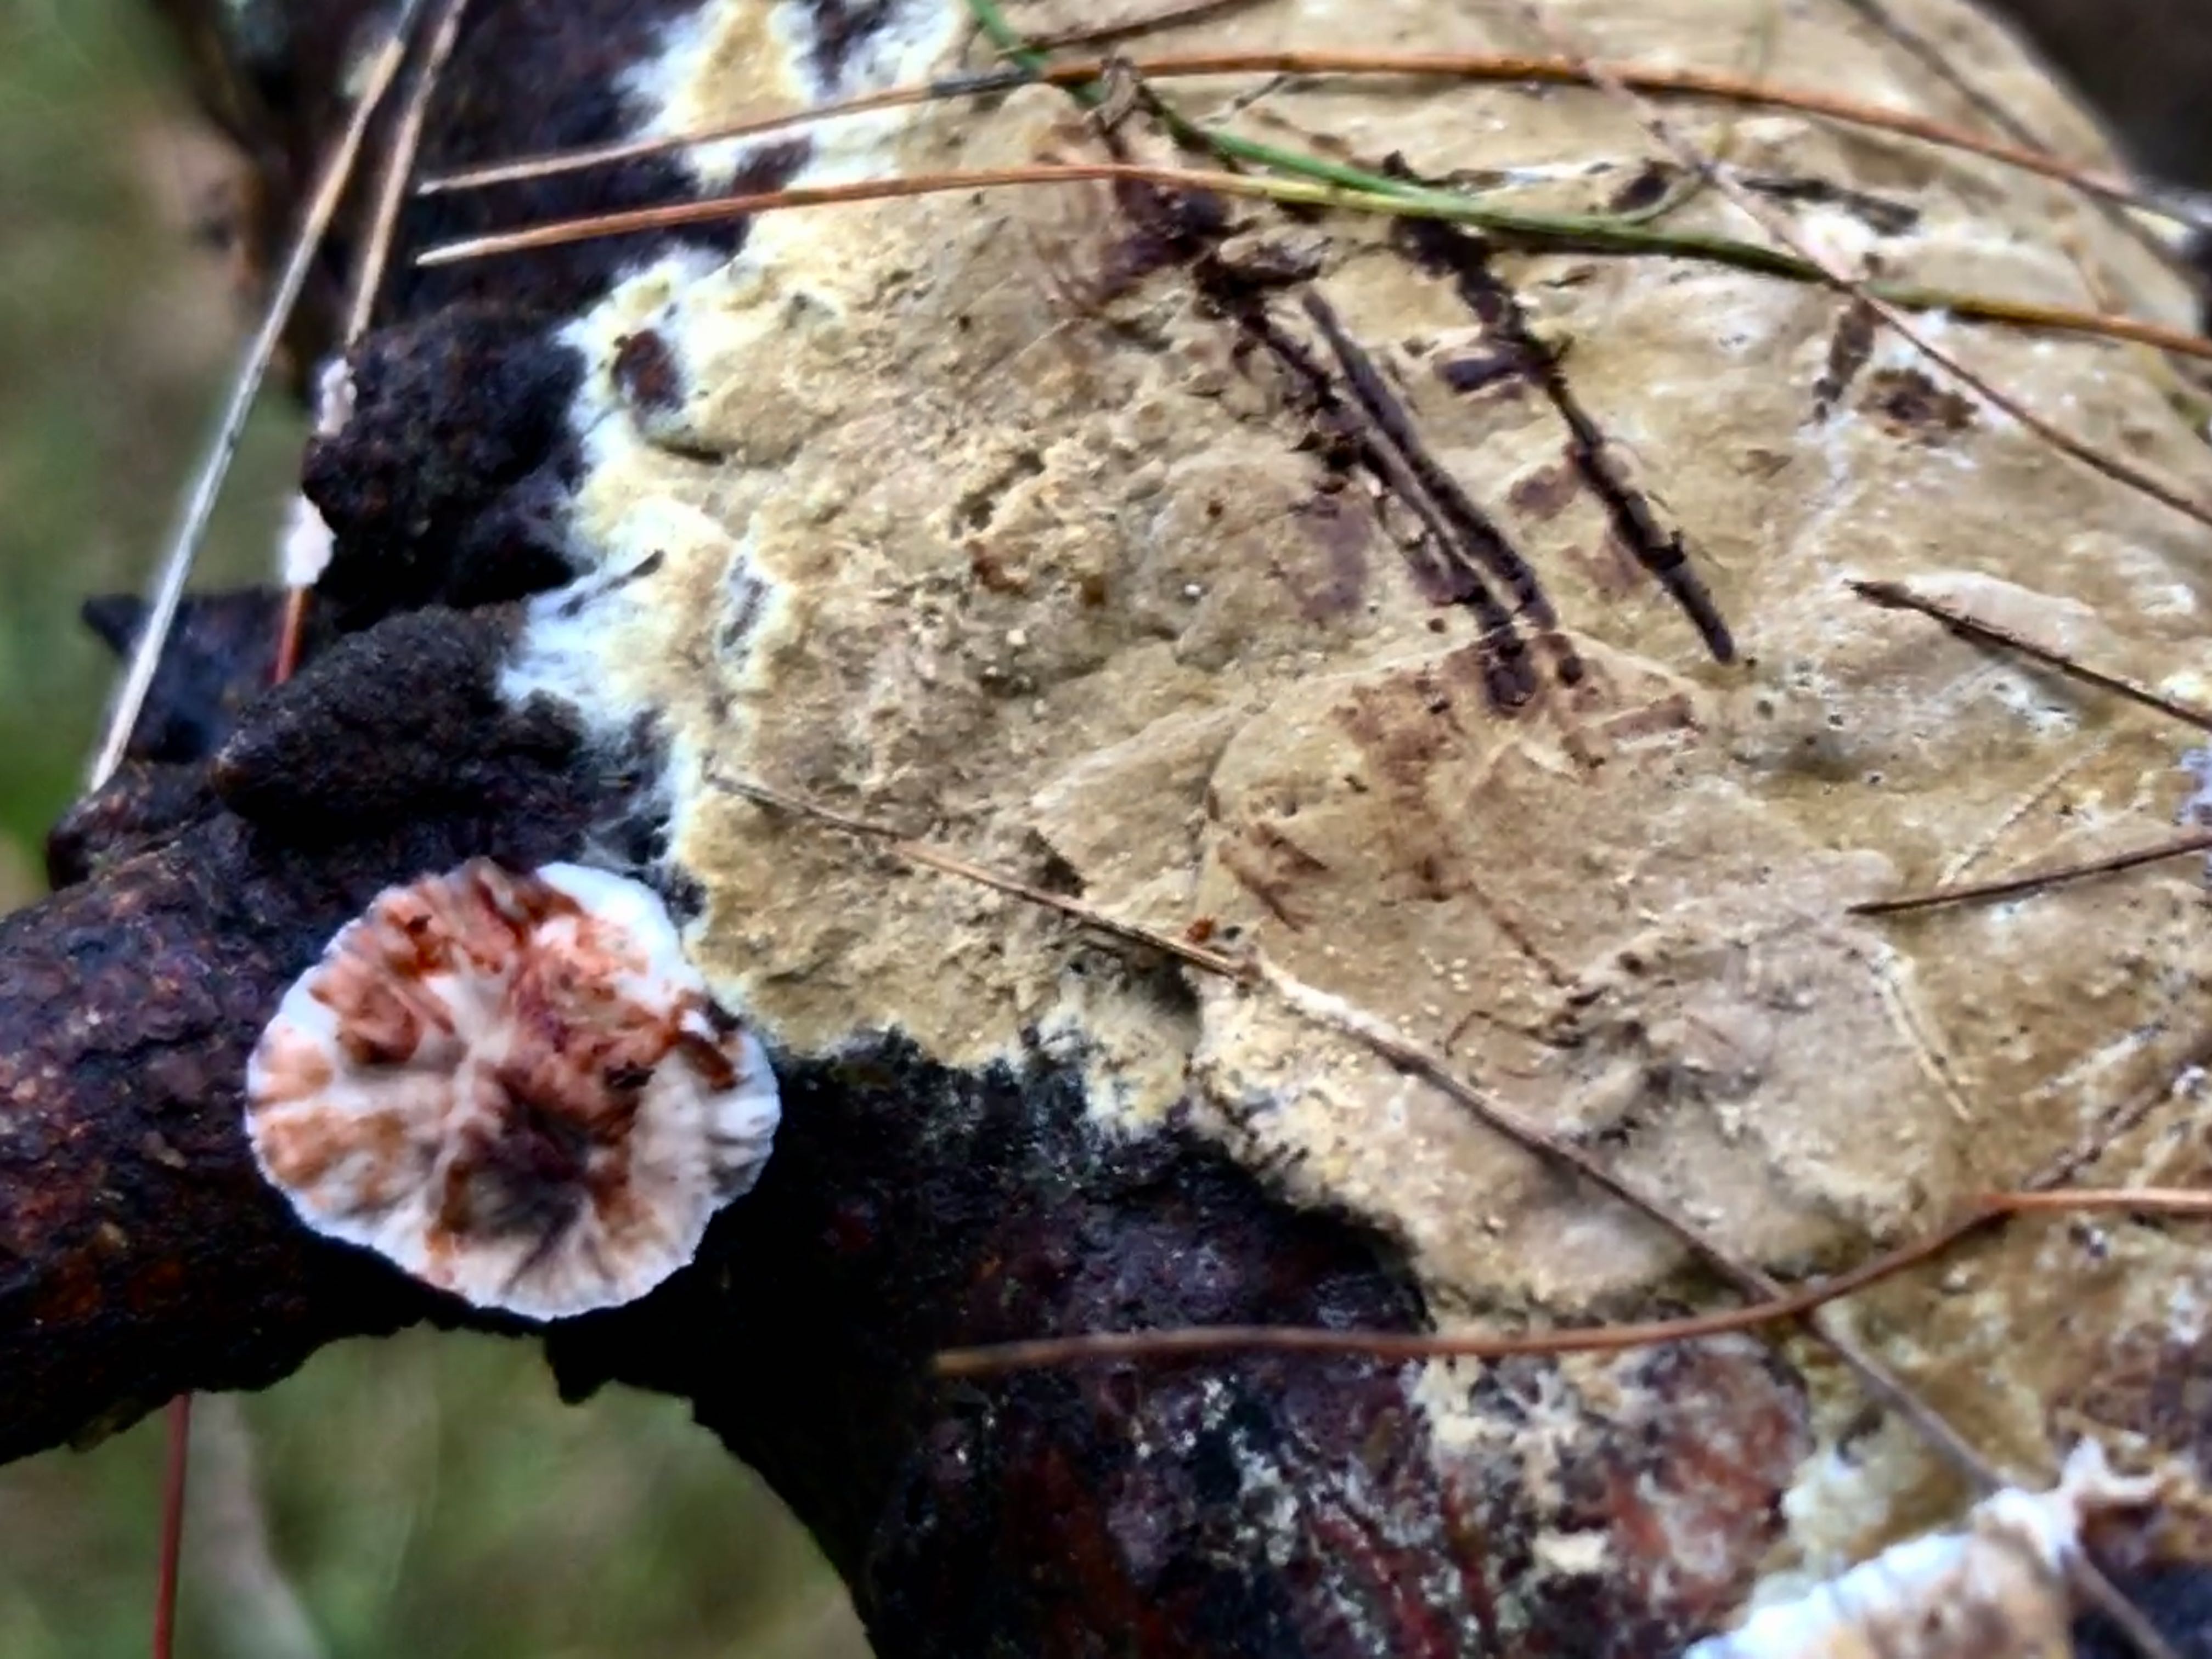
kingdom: Fungi
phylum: Basidiomycota
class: Agaricomycetes
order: Russulales
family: Stereaceae
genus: Stereum
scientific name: Stereum sanguinolentum
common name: blødende lædersvamp
